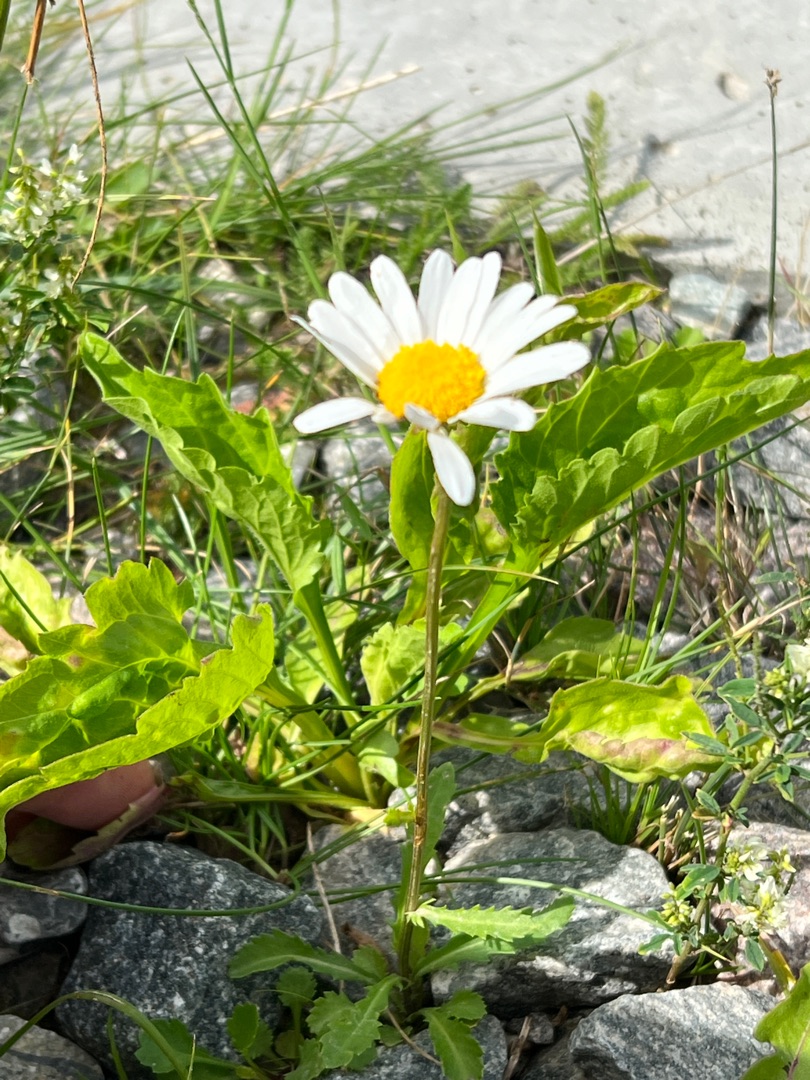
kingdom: Plantae
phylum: Tracheophyta
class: Magnoliopsida
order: Asterales
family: Asteraceae
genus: Leucanthemum
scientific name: Leucanthemum vulgare
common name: Hvid okseøje
